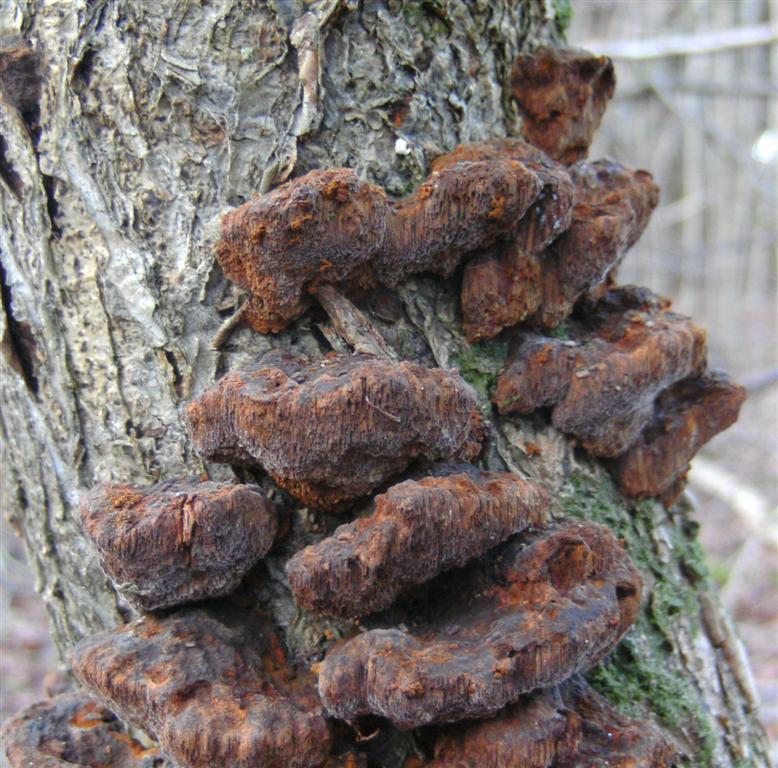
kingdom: Fungi
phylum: Basidiomycota
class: Agaricomycetes
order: Hymenochaetales
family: Hymenochaetaceae
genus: Xanthoporia
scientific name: Xanthoporia radiata
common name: elle-spejlporesvamp
